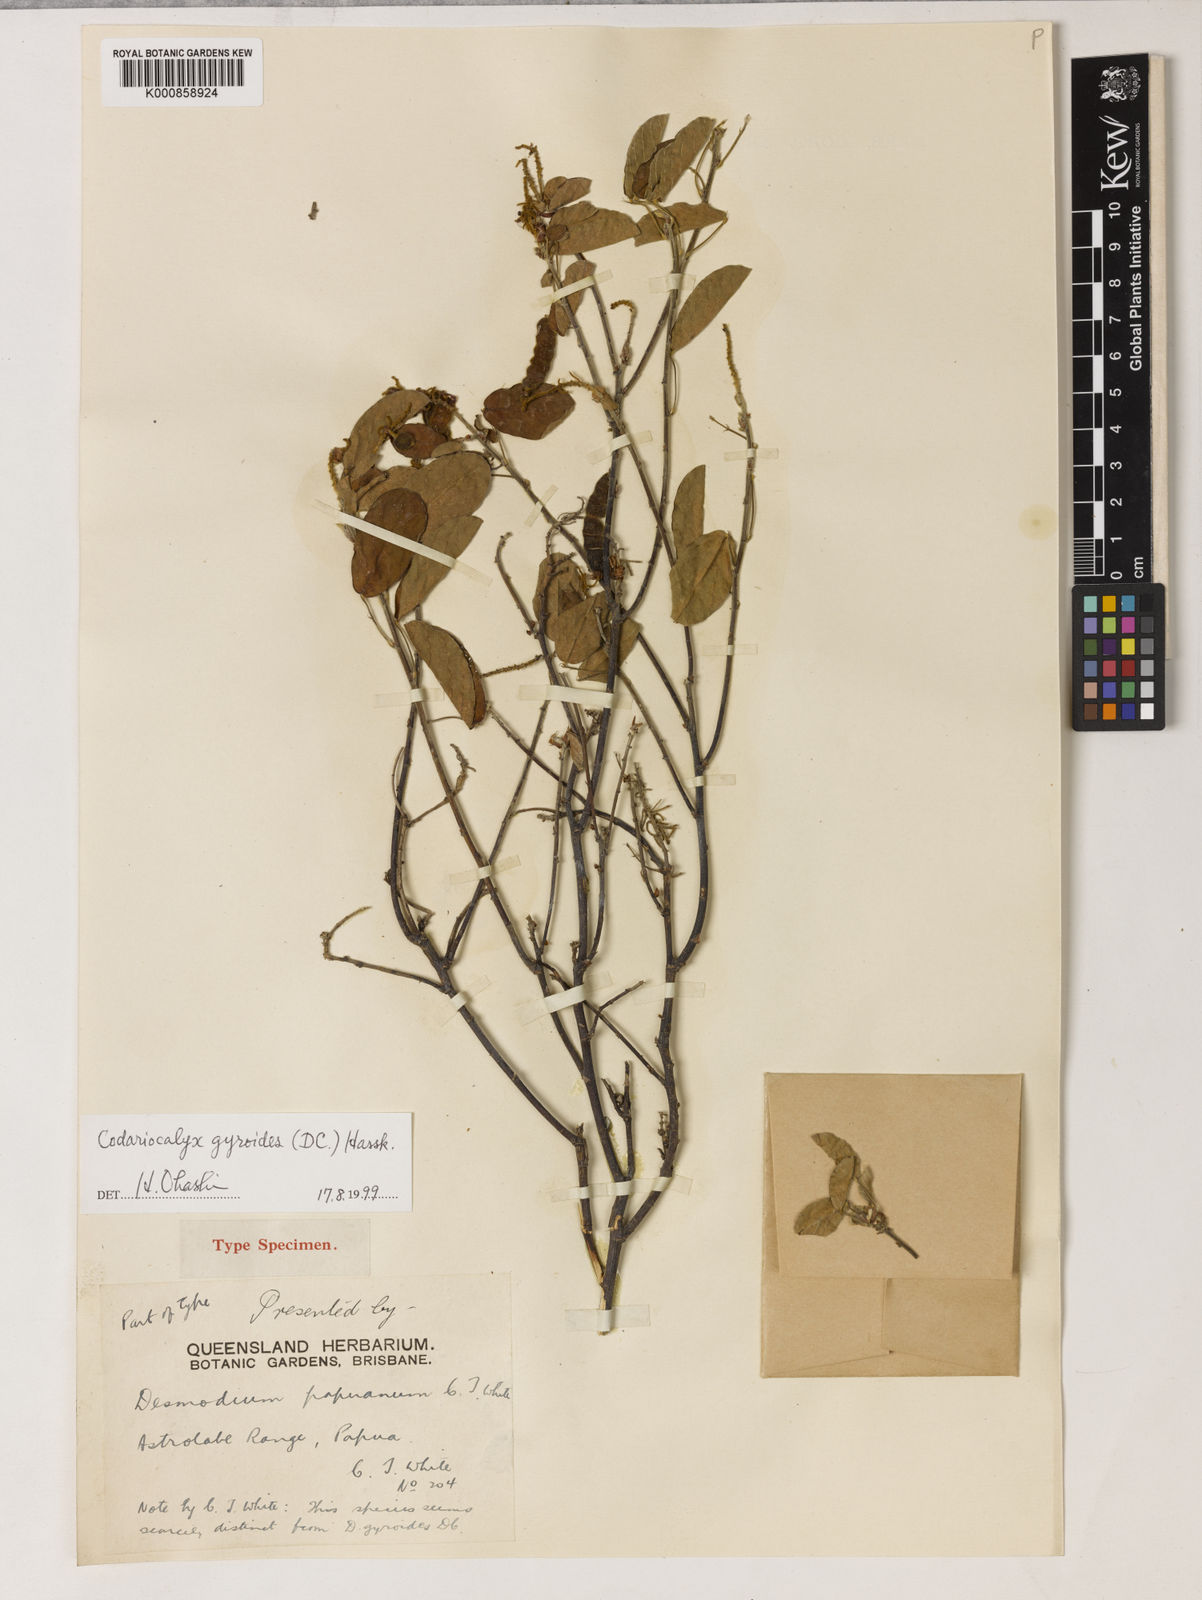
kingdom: Plantae
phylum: Tracheophyta
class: Magnoliopsida
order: Fabales
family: Fabaceae
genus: Codariocalyx
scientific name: Codariocalyx gyroides
